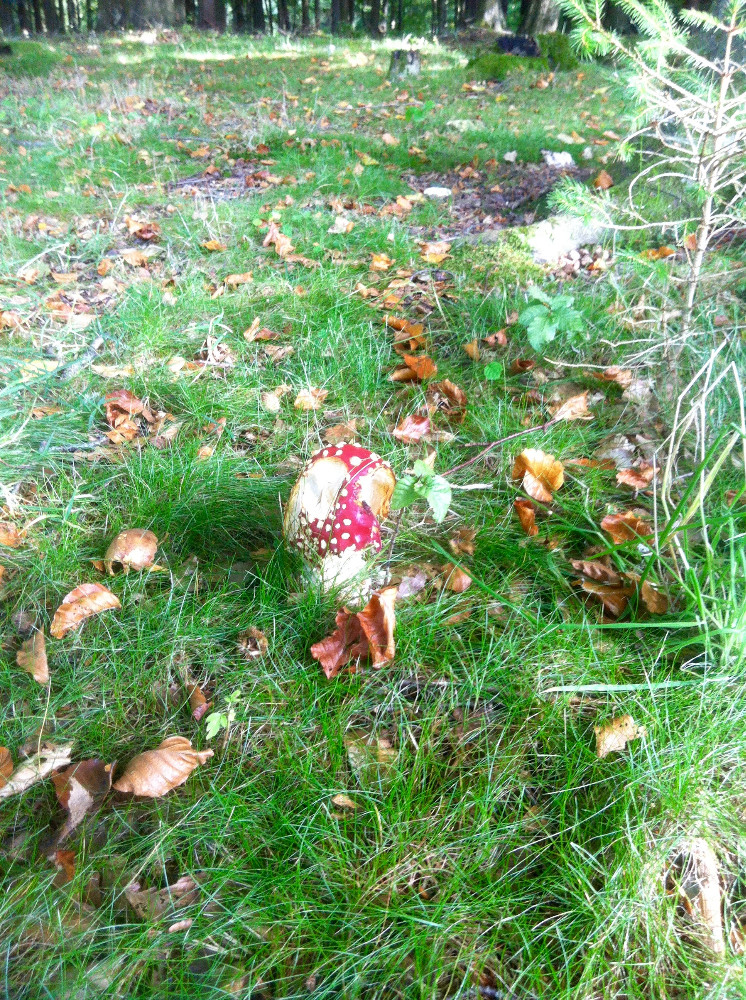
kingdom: Fungi
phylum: Basidiomycota
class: Agaricomycetes
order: Agaricales
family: Amanitaceae
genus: Amanita
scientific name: Amanita muscaria
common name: rød fluesvamp
